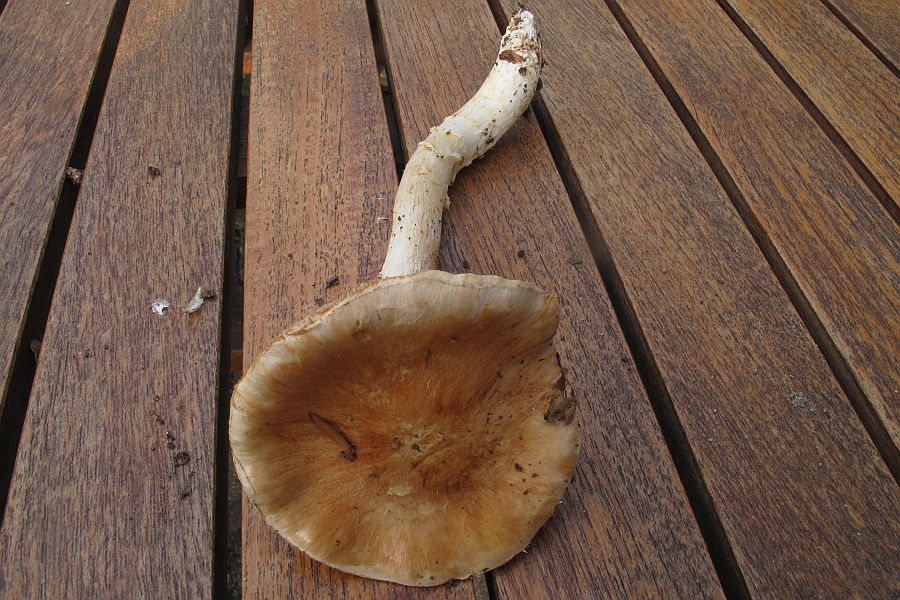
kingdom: Fungi
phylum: Basidiomycota
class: Agaricomycetes
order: Agaricales
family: Cortinariaceae
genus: Phlegmacium
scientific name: Phlegmacium vulpinum
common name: ringbæltet slørhat
